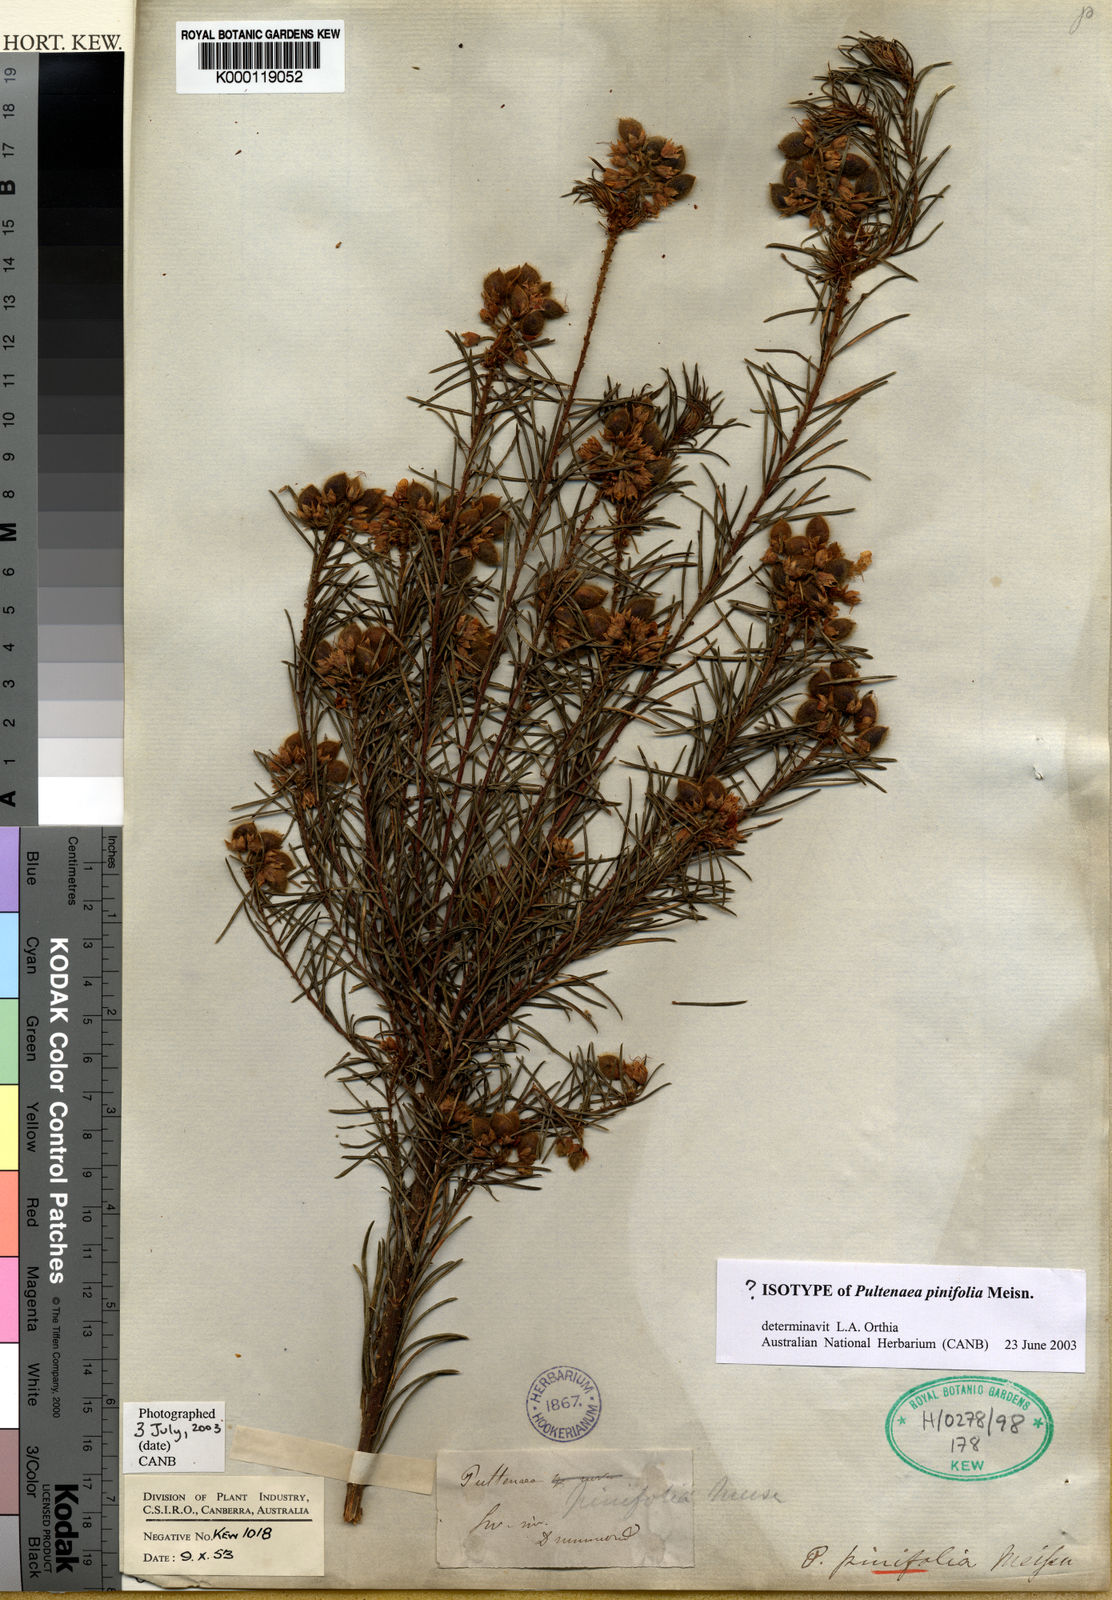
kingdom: Plantae
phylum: Tracheophyta
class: Magnoliopsida
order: Fabales
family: Fabaceae
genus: Pultenaea
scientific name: Pultenaea pinifolia
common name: Tree pultenaea
